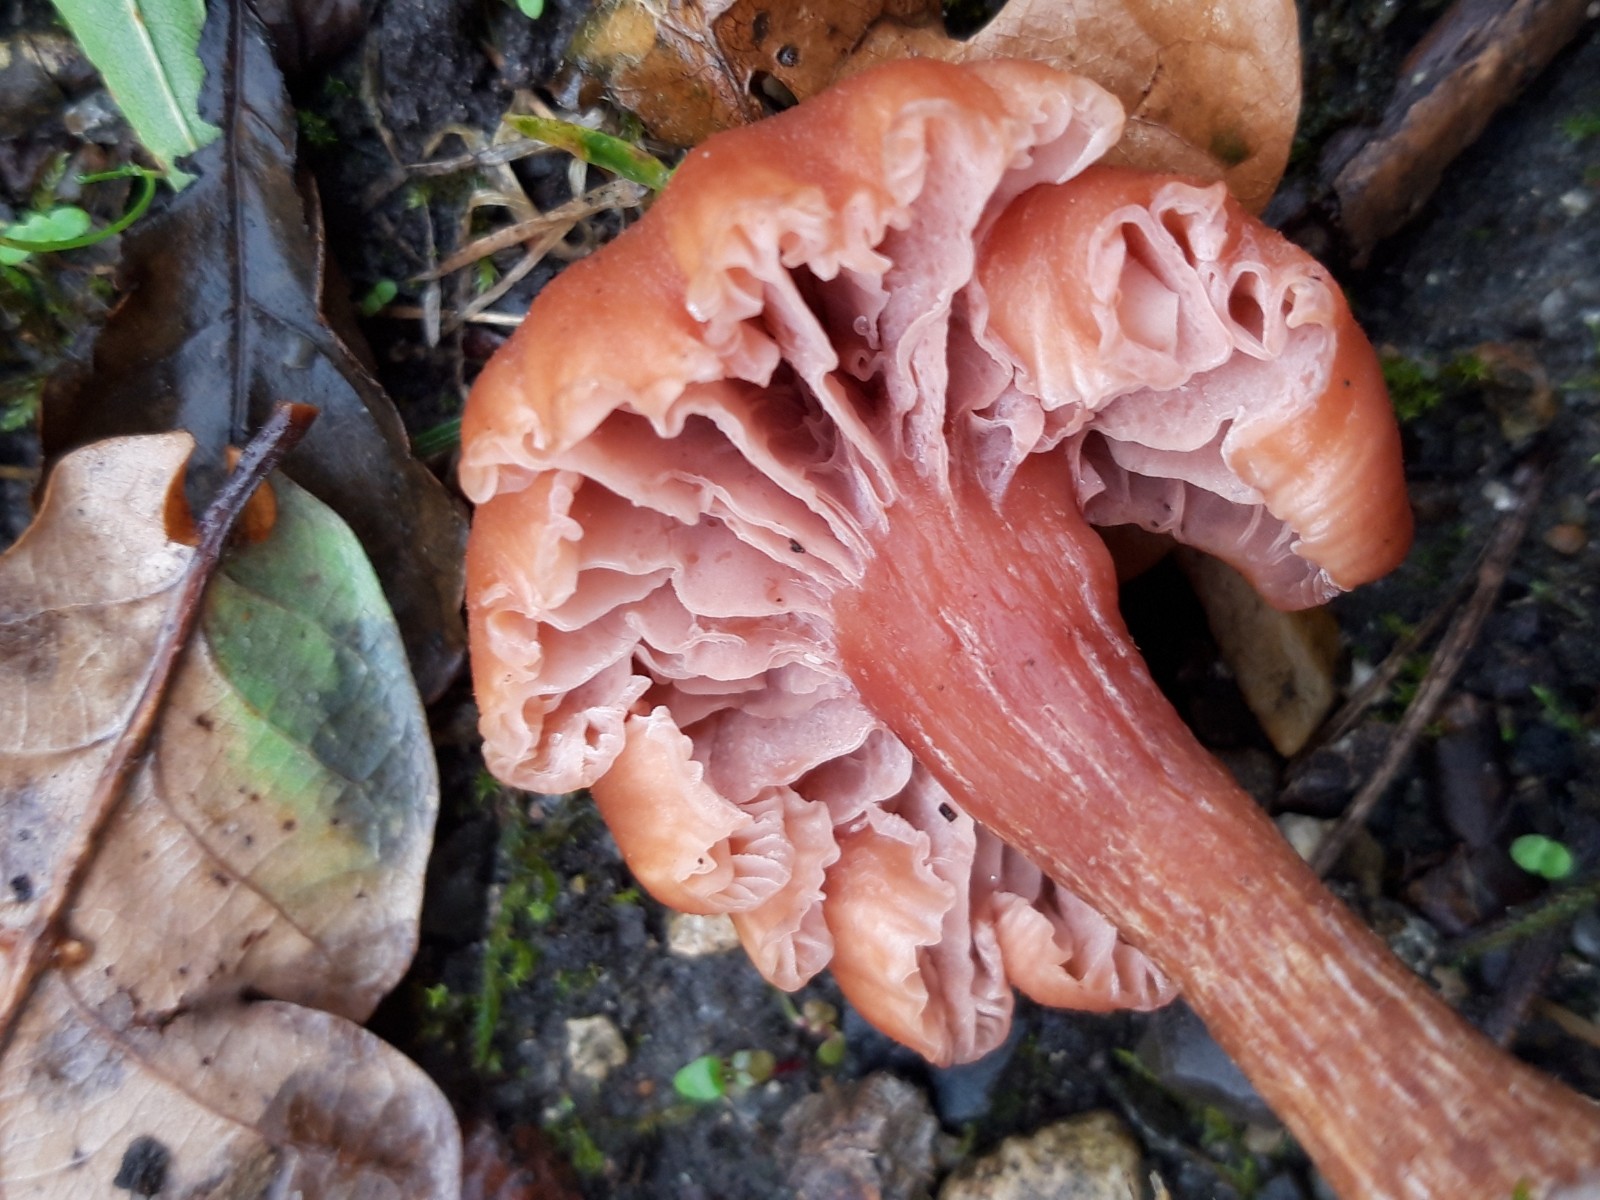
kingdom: Fungi
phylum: Basidiomycota
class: Agaricomycetes
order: Agaricales
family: Hydnangiaceae
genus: Laccaria
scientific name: Laccaria laccata
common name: rød ametysthat
